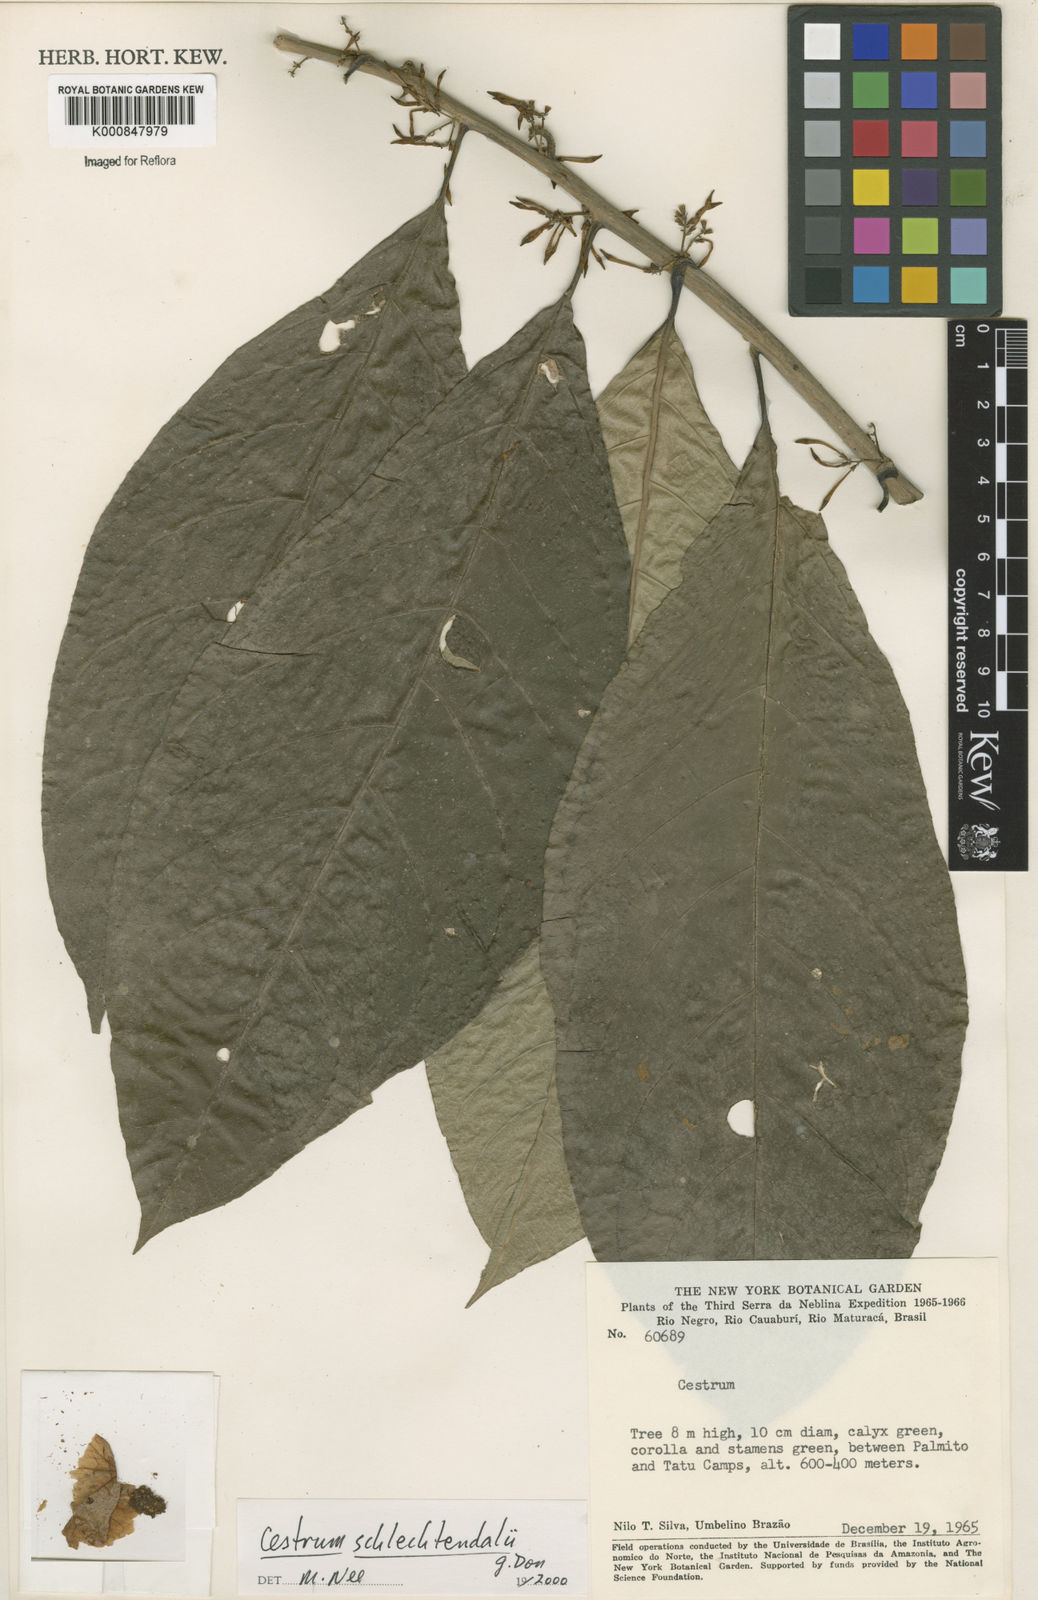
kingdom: Plantae
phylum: Tracheophyta
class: Magnoliopsida
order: Solanales
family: Solanaceae
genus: Cestrum
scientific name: Cestrum schlechtendalii
